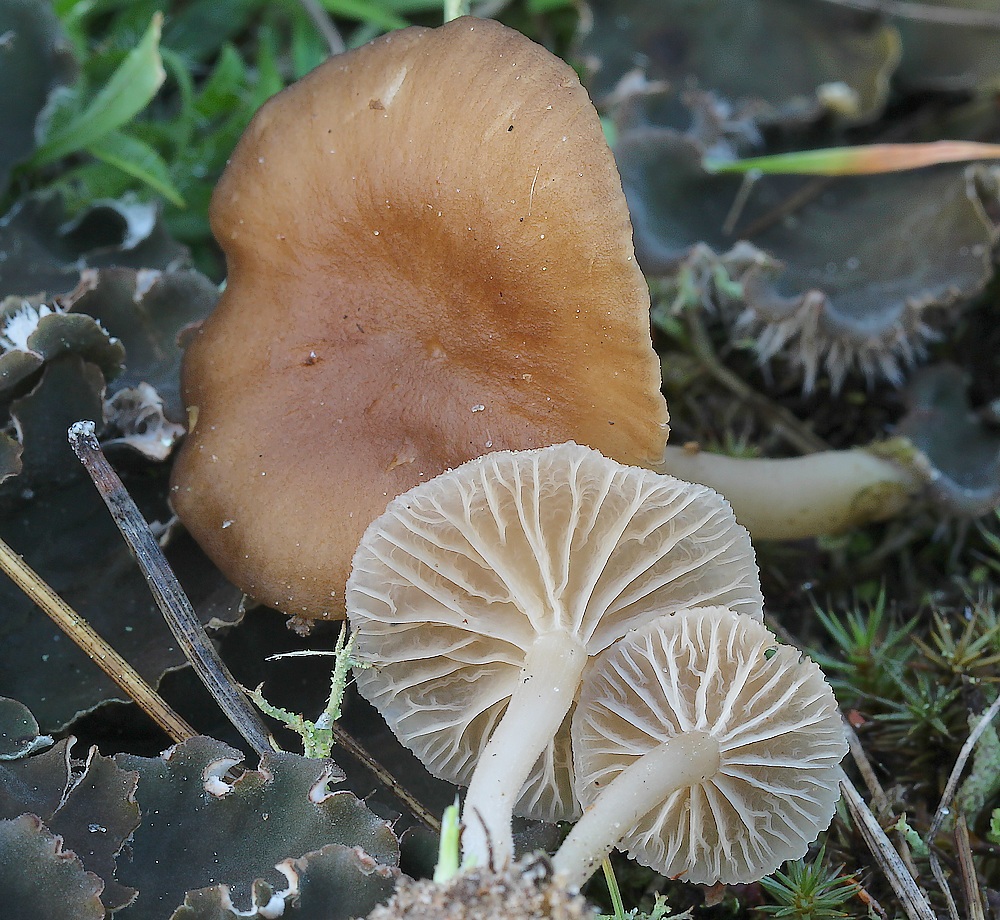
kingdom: Fungi
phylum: Basidiomycota
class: Agaricomycetes
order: Agaricales
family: Hygrophoraceae
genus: Arrhenia
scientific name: Arrhenia peltigerina
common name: skjoldlav-fontænehat
